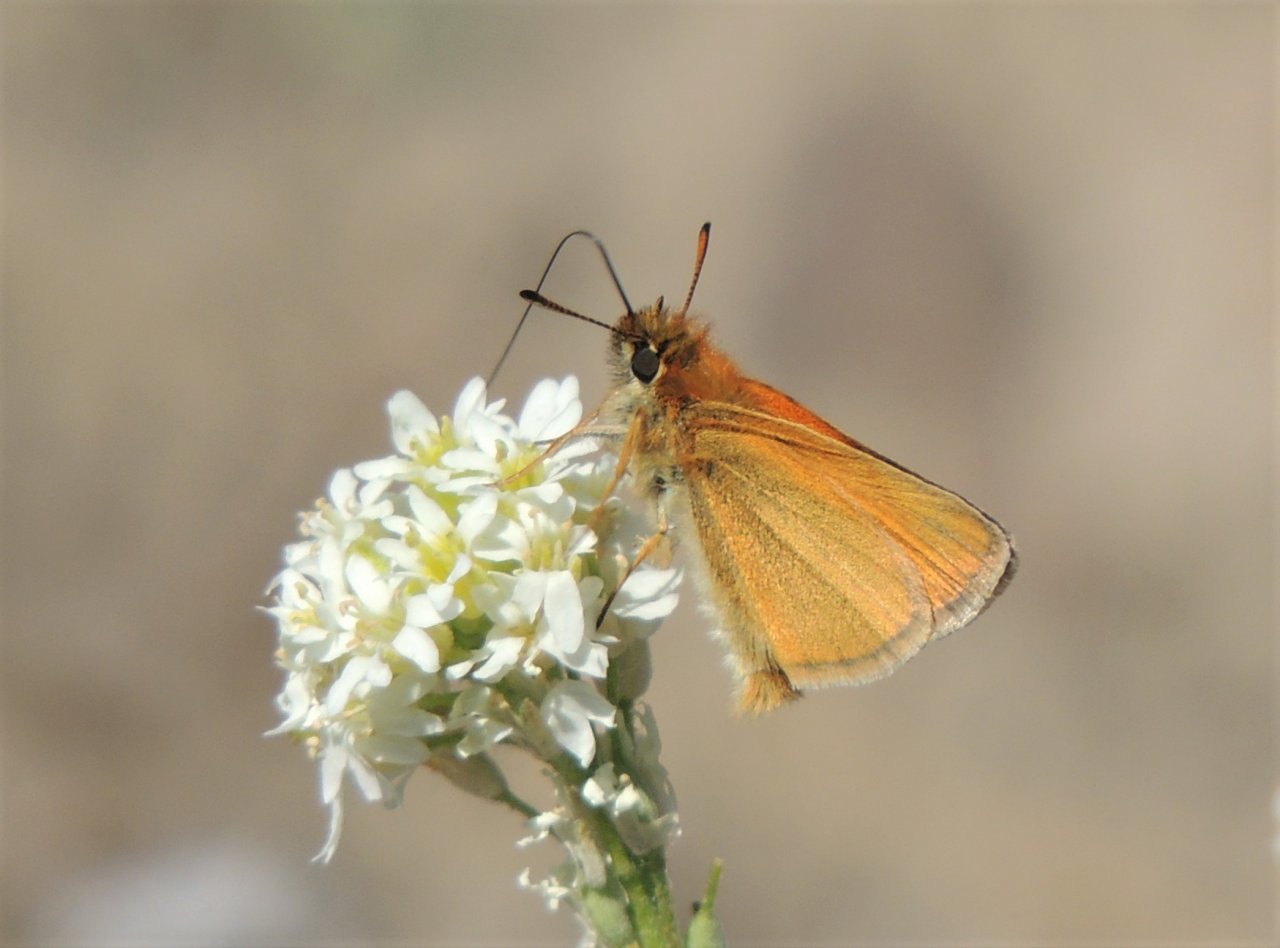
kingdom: Animalia
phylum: Arthropoda
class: Insecta
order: Lepidoptera
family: Hesperiidae
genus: Thymelicus
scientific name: Thymelicus lineola
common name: European Skipper
